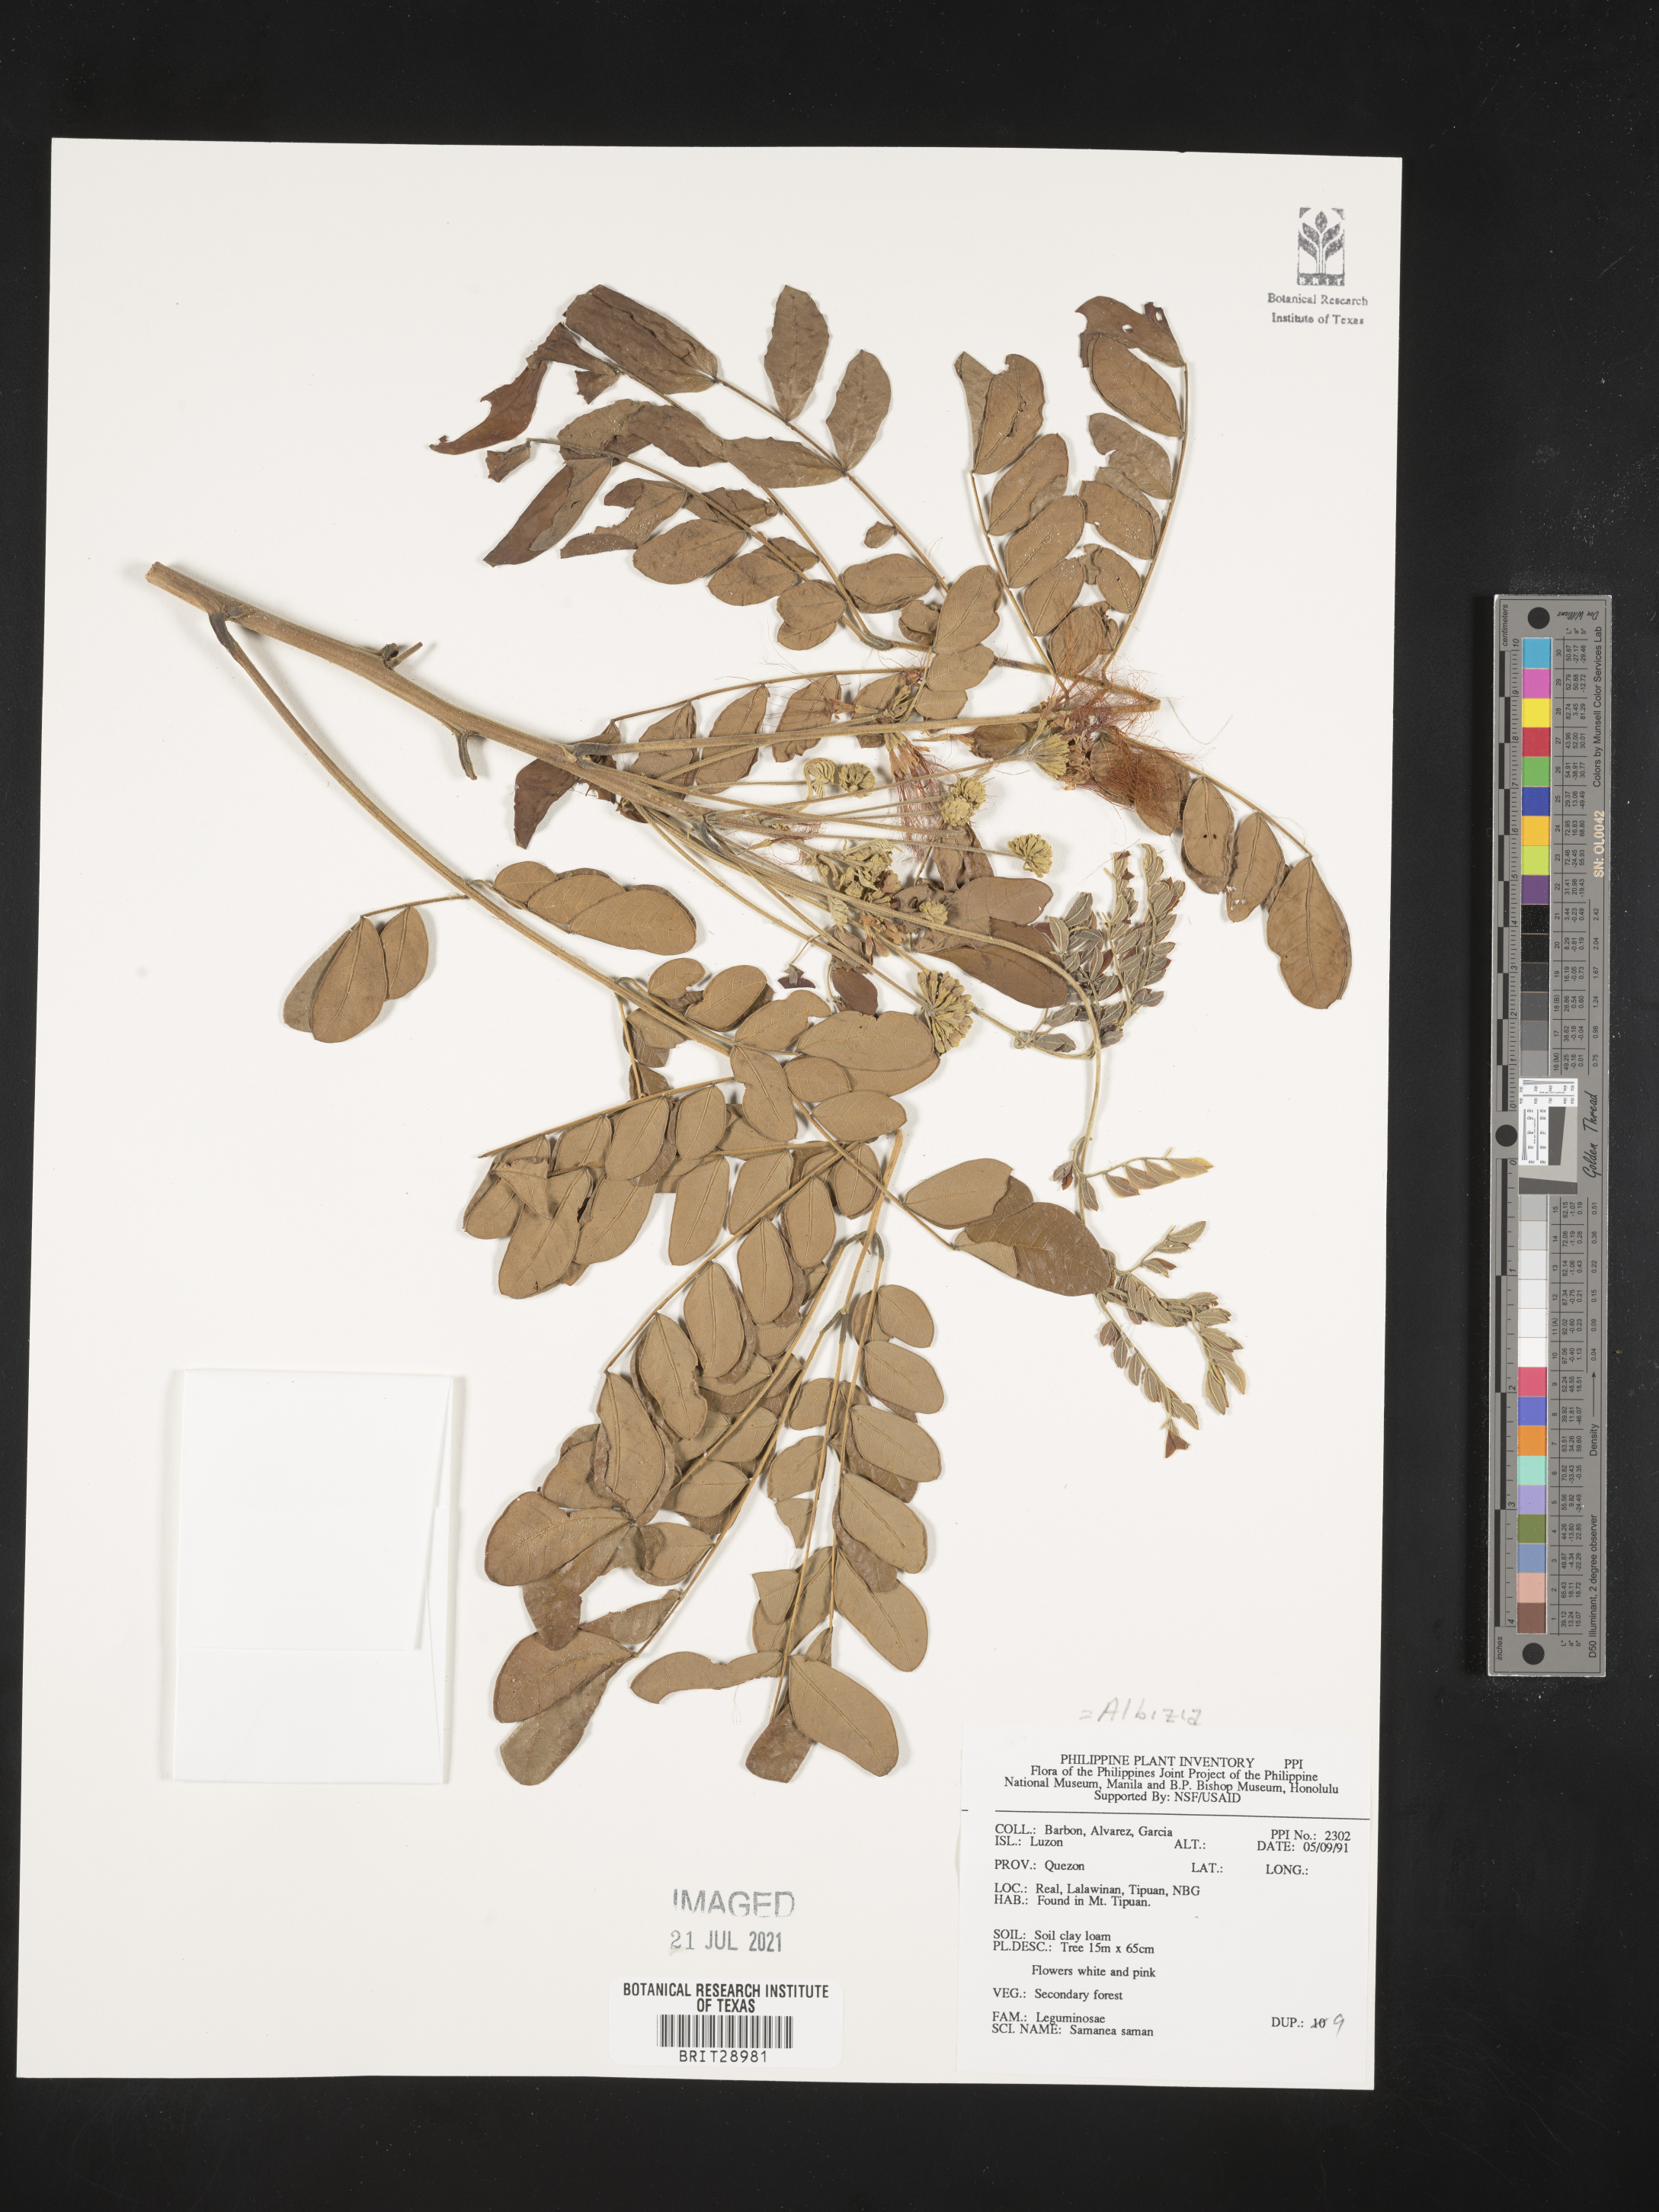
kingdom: Plantae
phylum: Tracheophyta
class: Magnoliopsida
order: Fabales
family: Fabaceae
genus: Samanea
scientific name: Samanea saman
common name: Raintree
